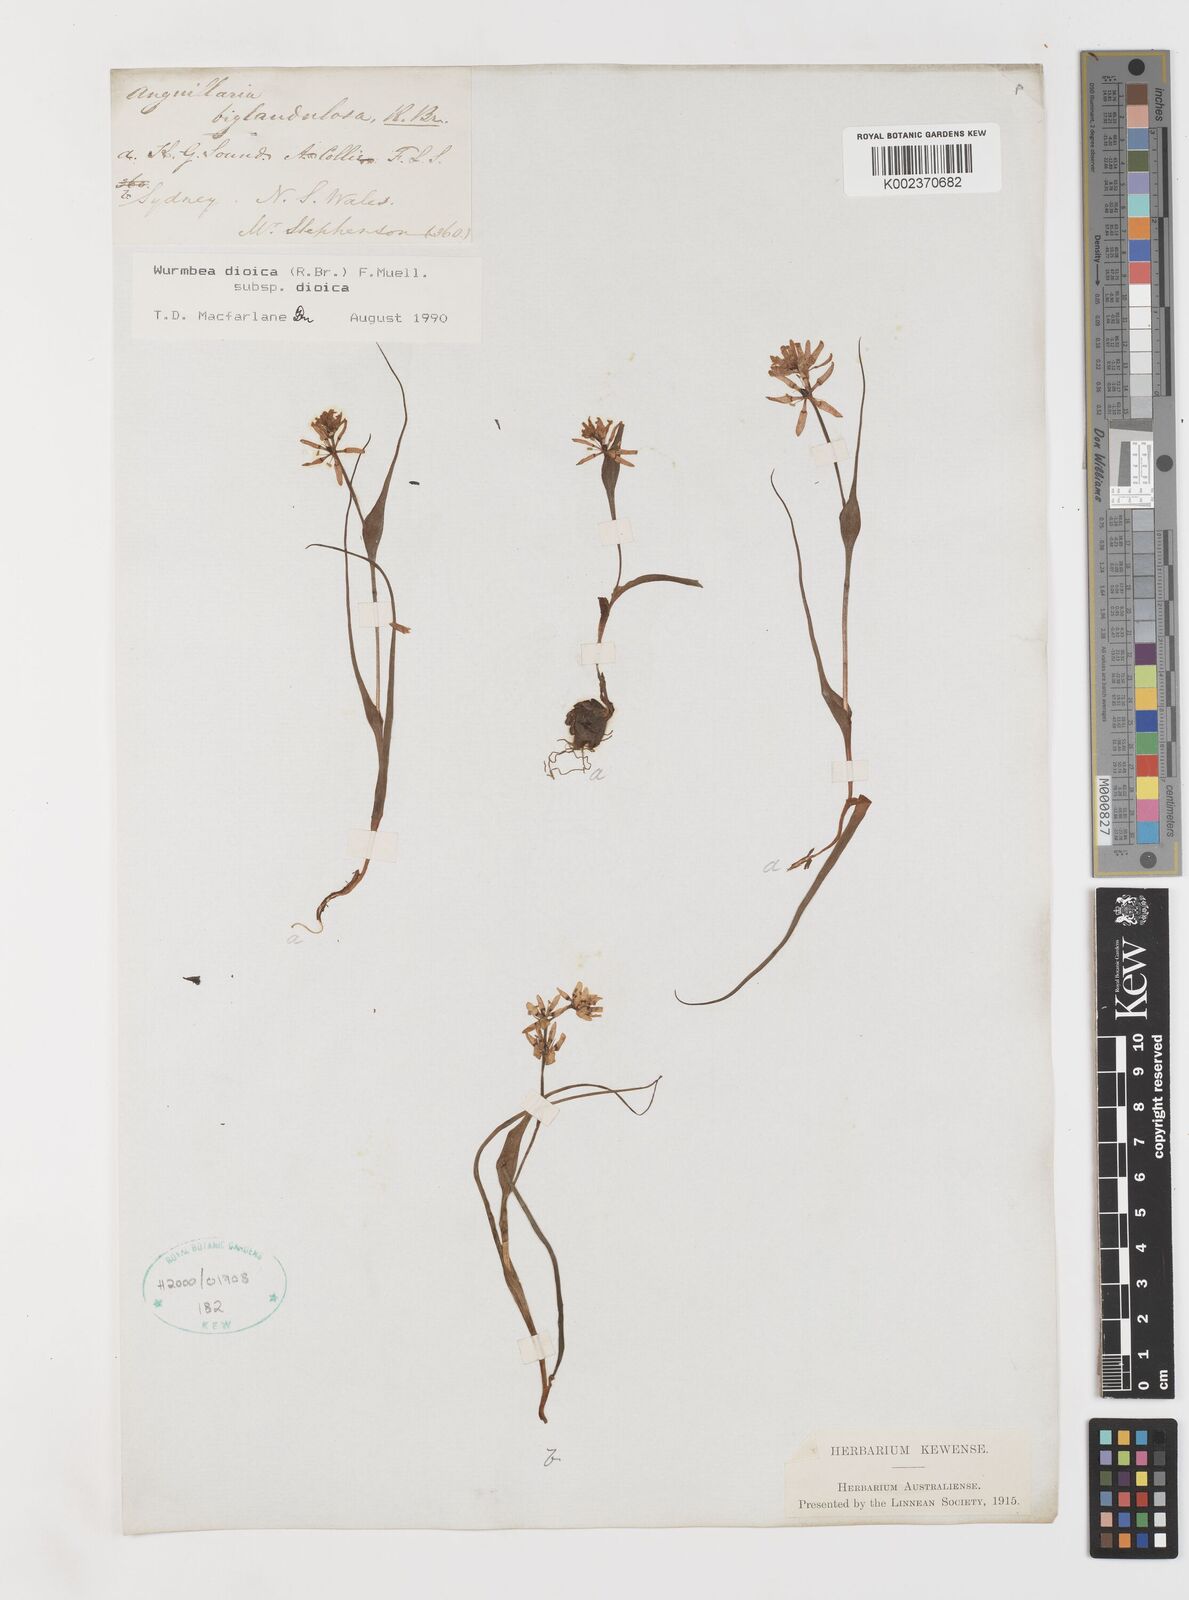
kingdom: Plantae
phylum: Tracheophyta
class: Liliopsida
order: Liliales
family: Colchicaceae
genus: Wurmbea
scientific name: Wurmbea dioica
